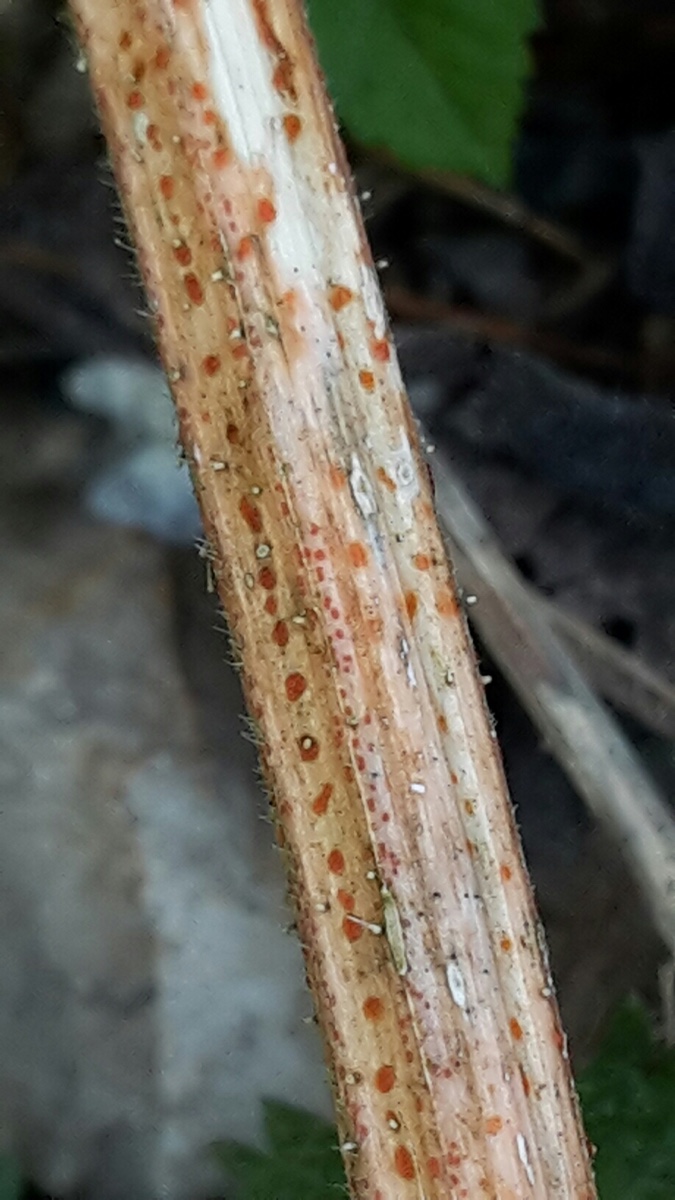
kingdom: Fungi
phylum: Ascomycota
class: Leotiomycetes
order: Helotiales
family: Calloriaceae
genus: Calloria
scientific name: Calloria urticae
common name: nælde-orangeskive
